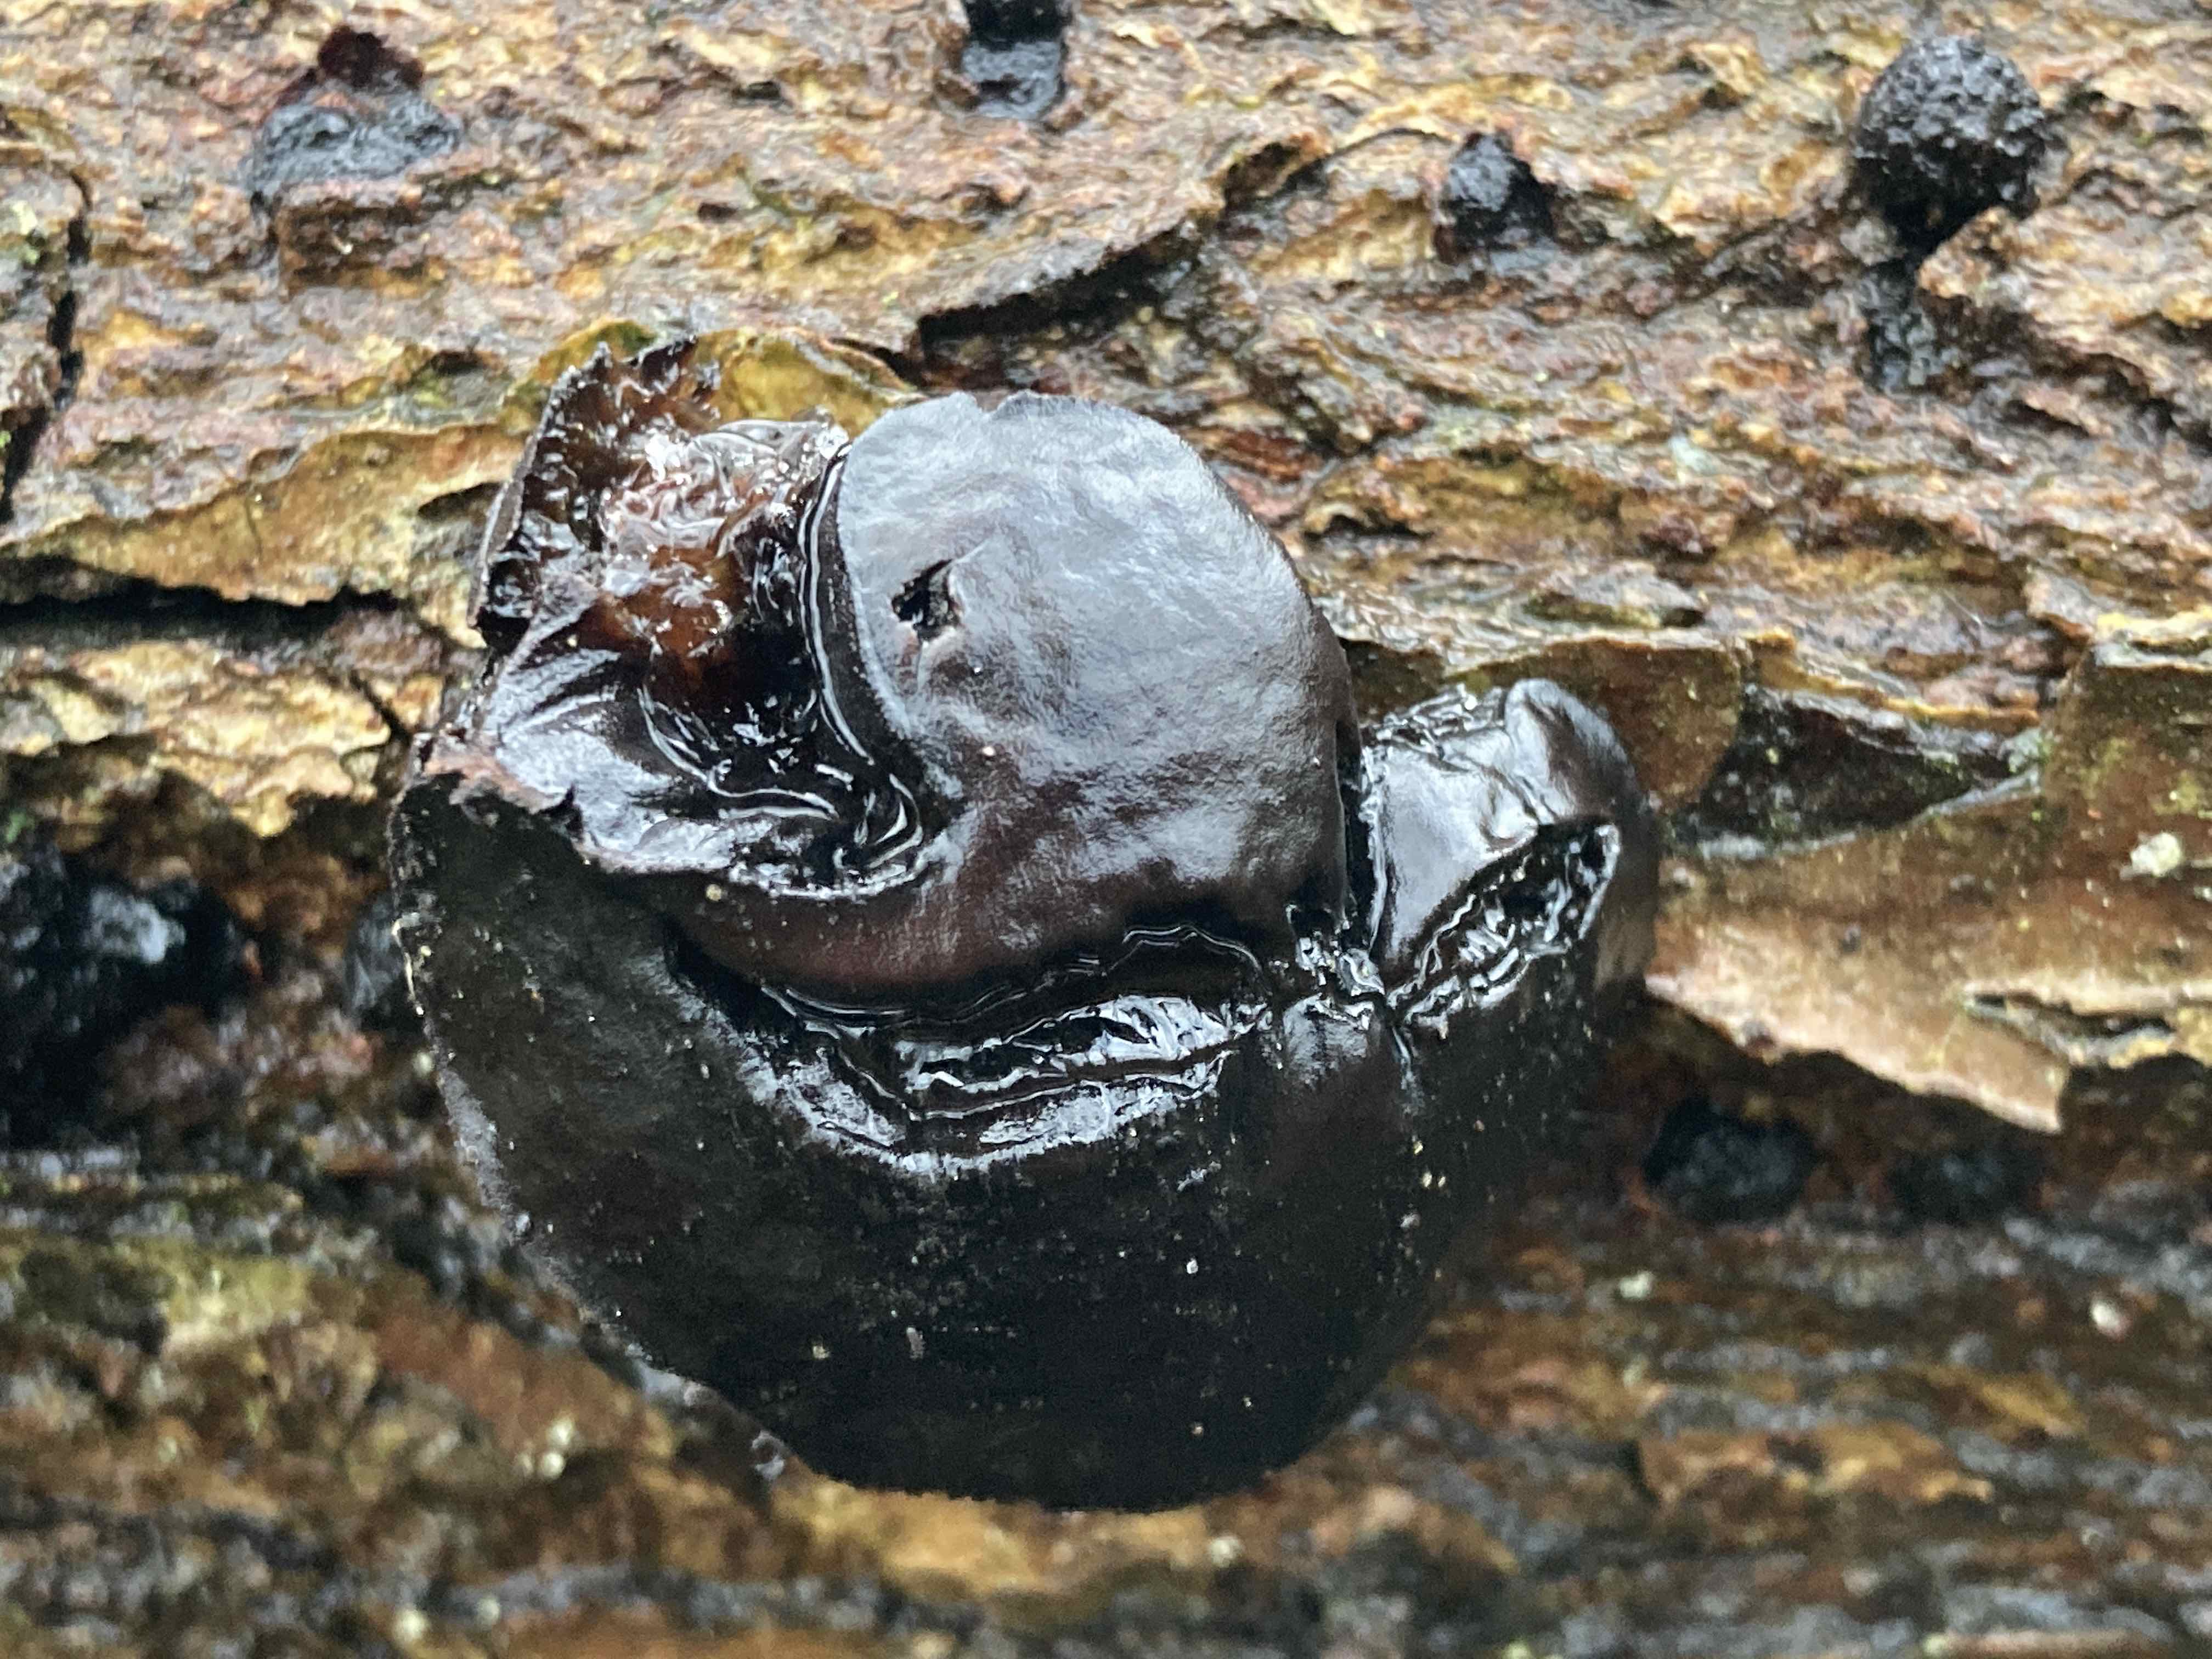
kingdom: Fungi
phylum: Ascomycota
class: Leotiomycetes
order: Phacidiales
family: Phacidiaceae
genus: Bulgaria
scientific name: Bulgaria inquinans
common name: afsmittende topsvamp
